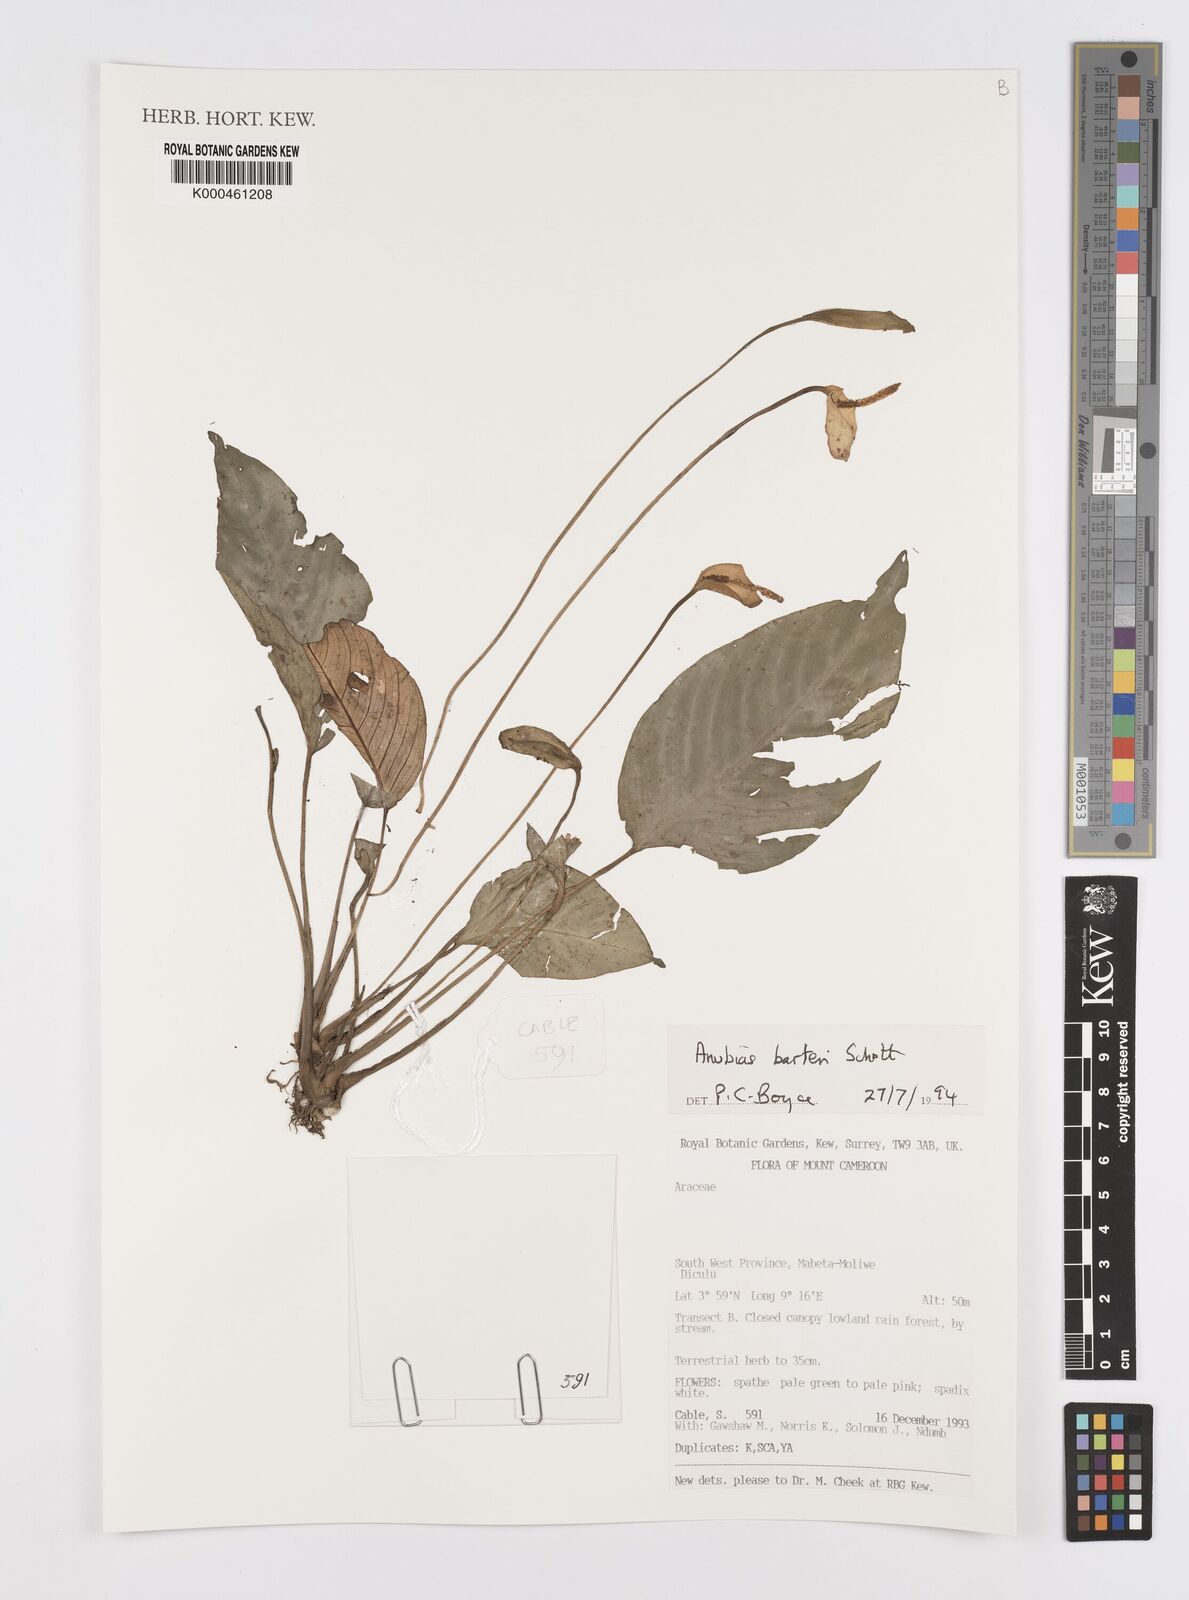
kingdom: Plantae
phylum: Tracheophyta
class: Liliopsida
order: Alismatales
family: Araceae
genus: Anubias
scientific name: Anubias barteri
